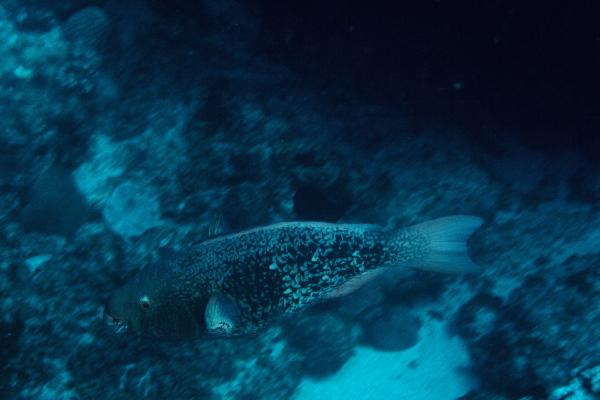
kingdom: Animalia
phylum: Chordata
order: Perciformes
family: Scaridae
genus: Scarus
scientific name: Scarus rubroviolaceus
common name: Ember parrotfish
